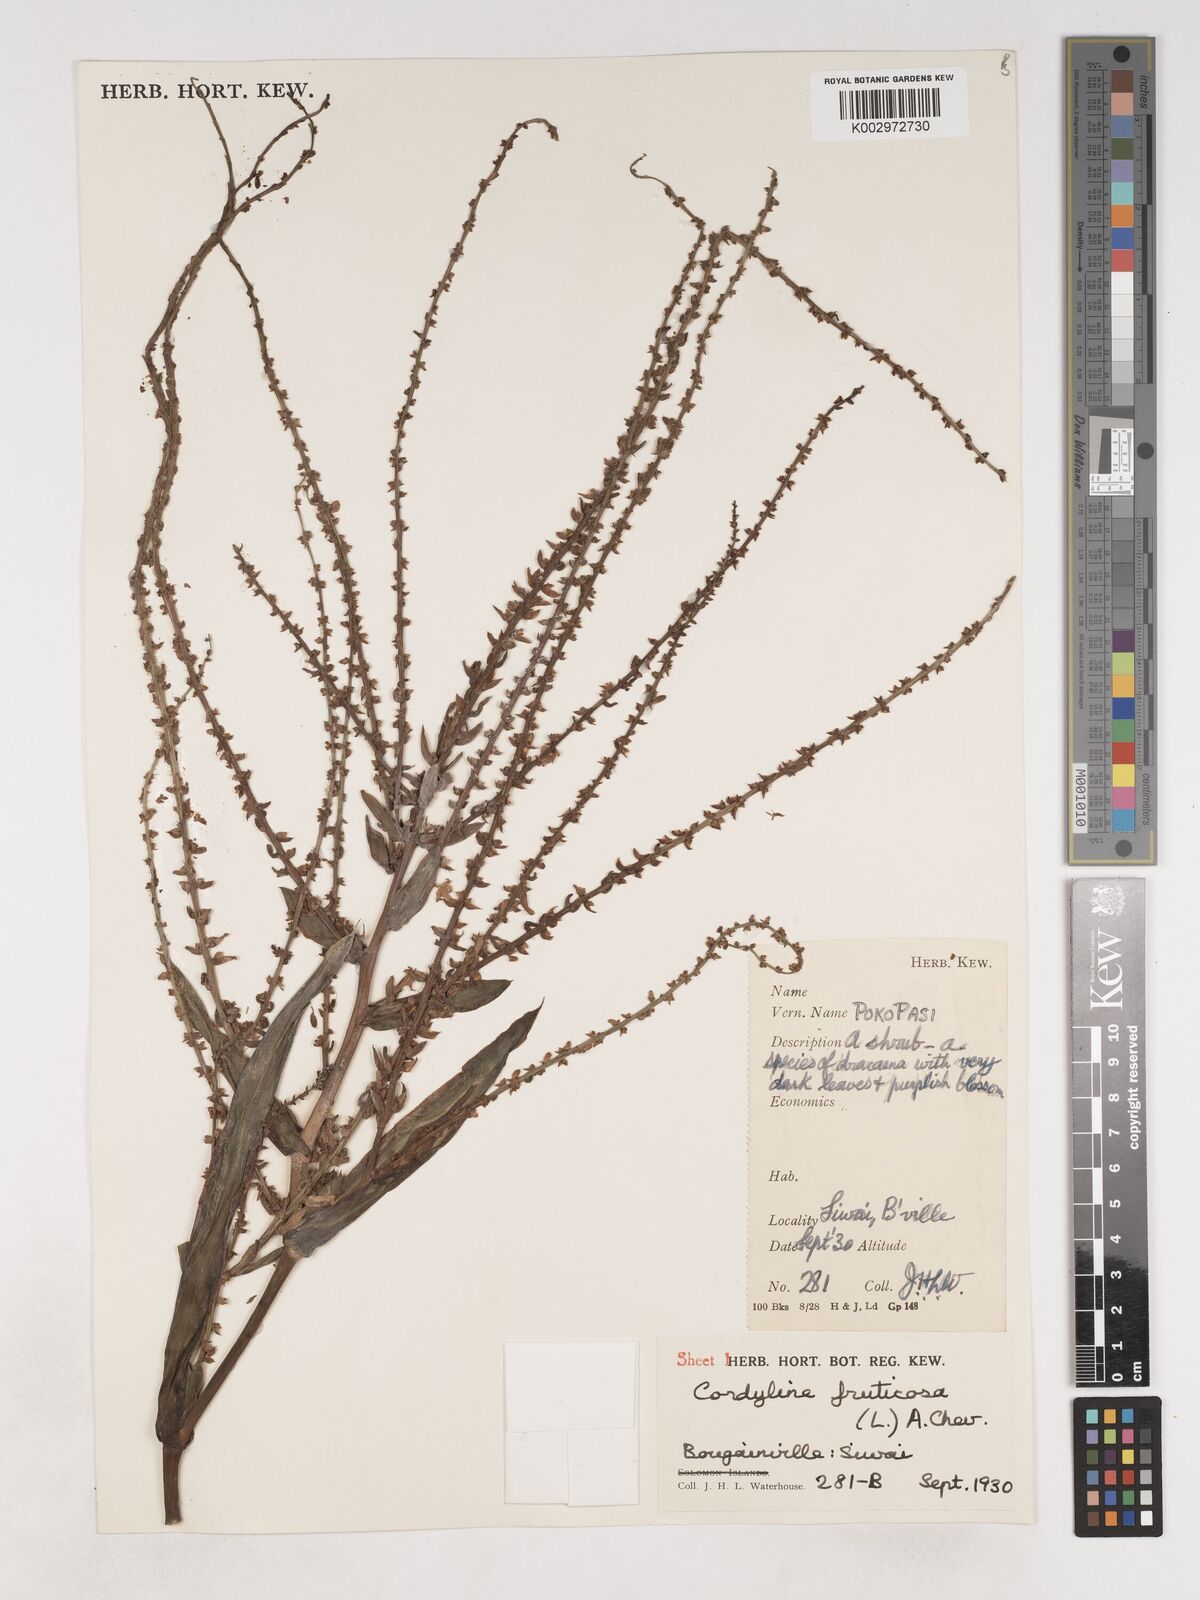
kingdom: Plantae
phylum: Tracheophyta
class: Liliopsida
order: Asparagales
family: Asparagaceae
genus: Cordyline
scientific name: Cordyline fruticosa
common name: Good-luck-plant
